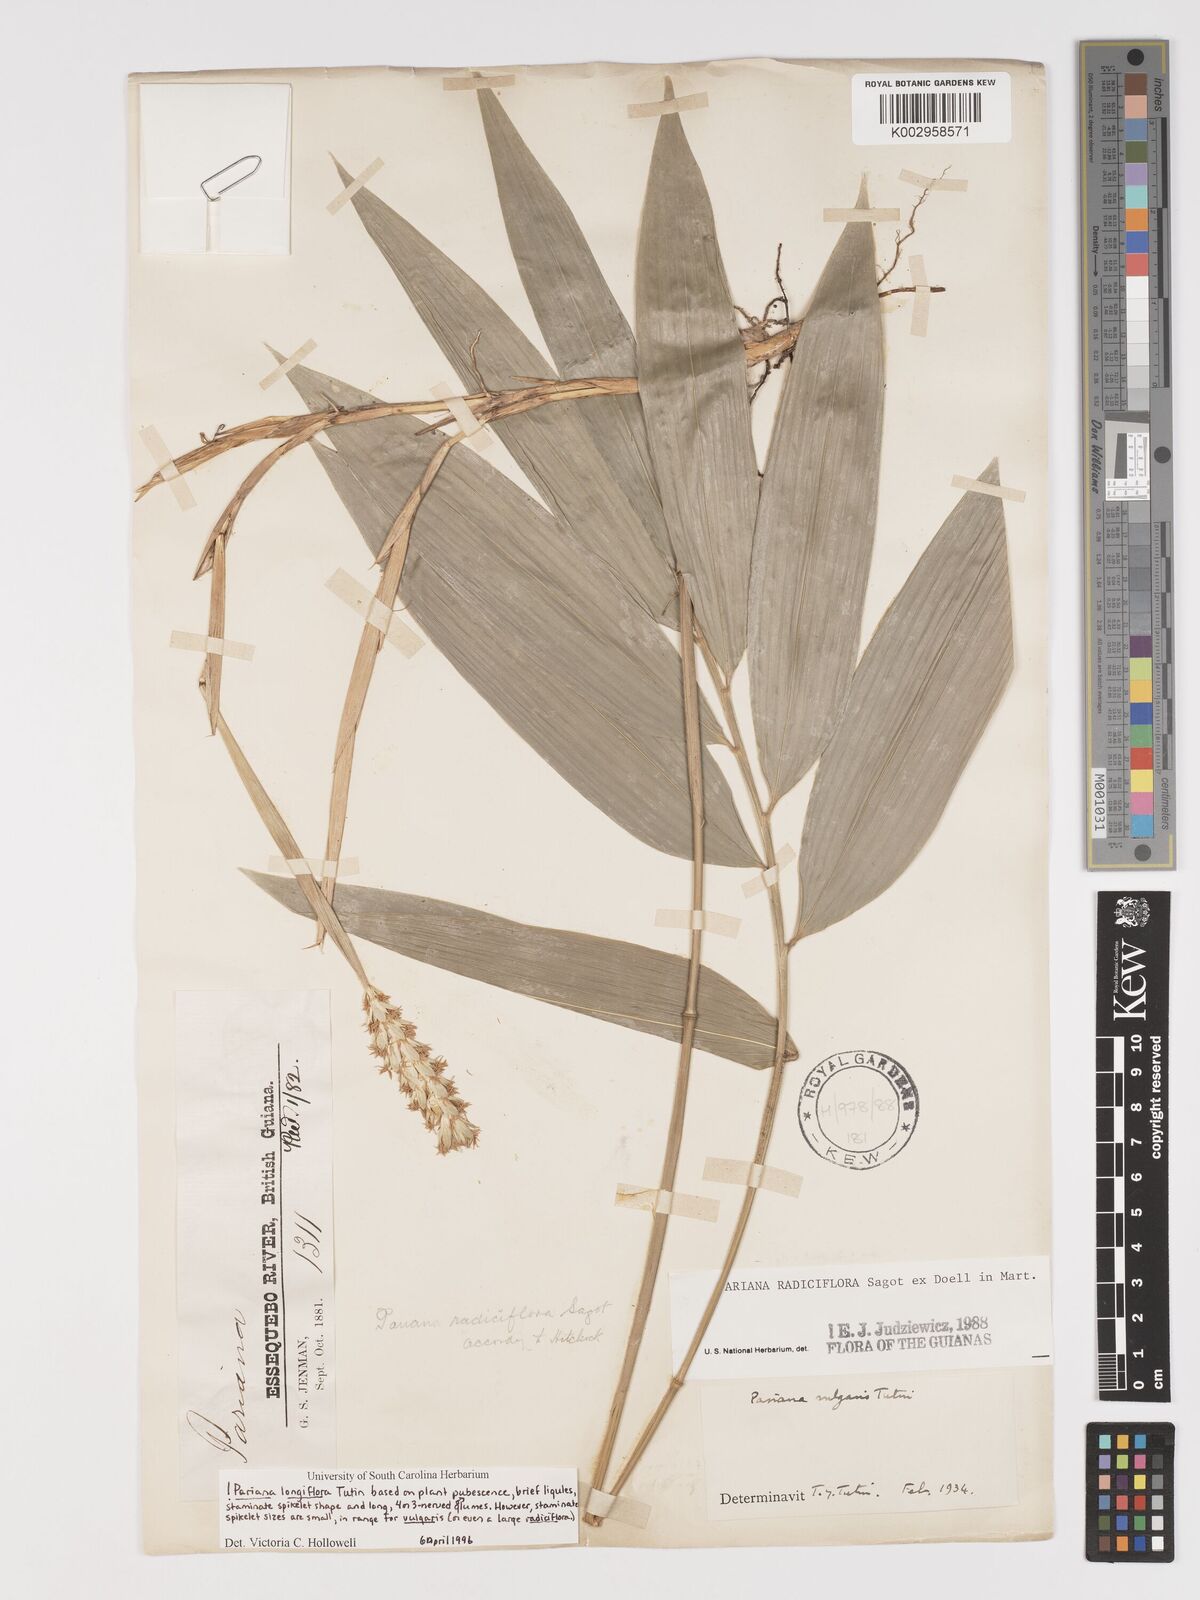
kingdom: Plantae
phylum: Tracheophyta
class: Liliopsida
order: Poales
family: Poaceae
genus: Pariana
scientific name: Pariana radiciflora
